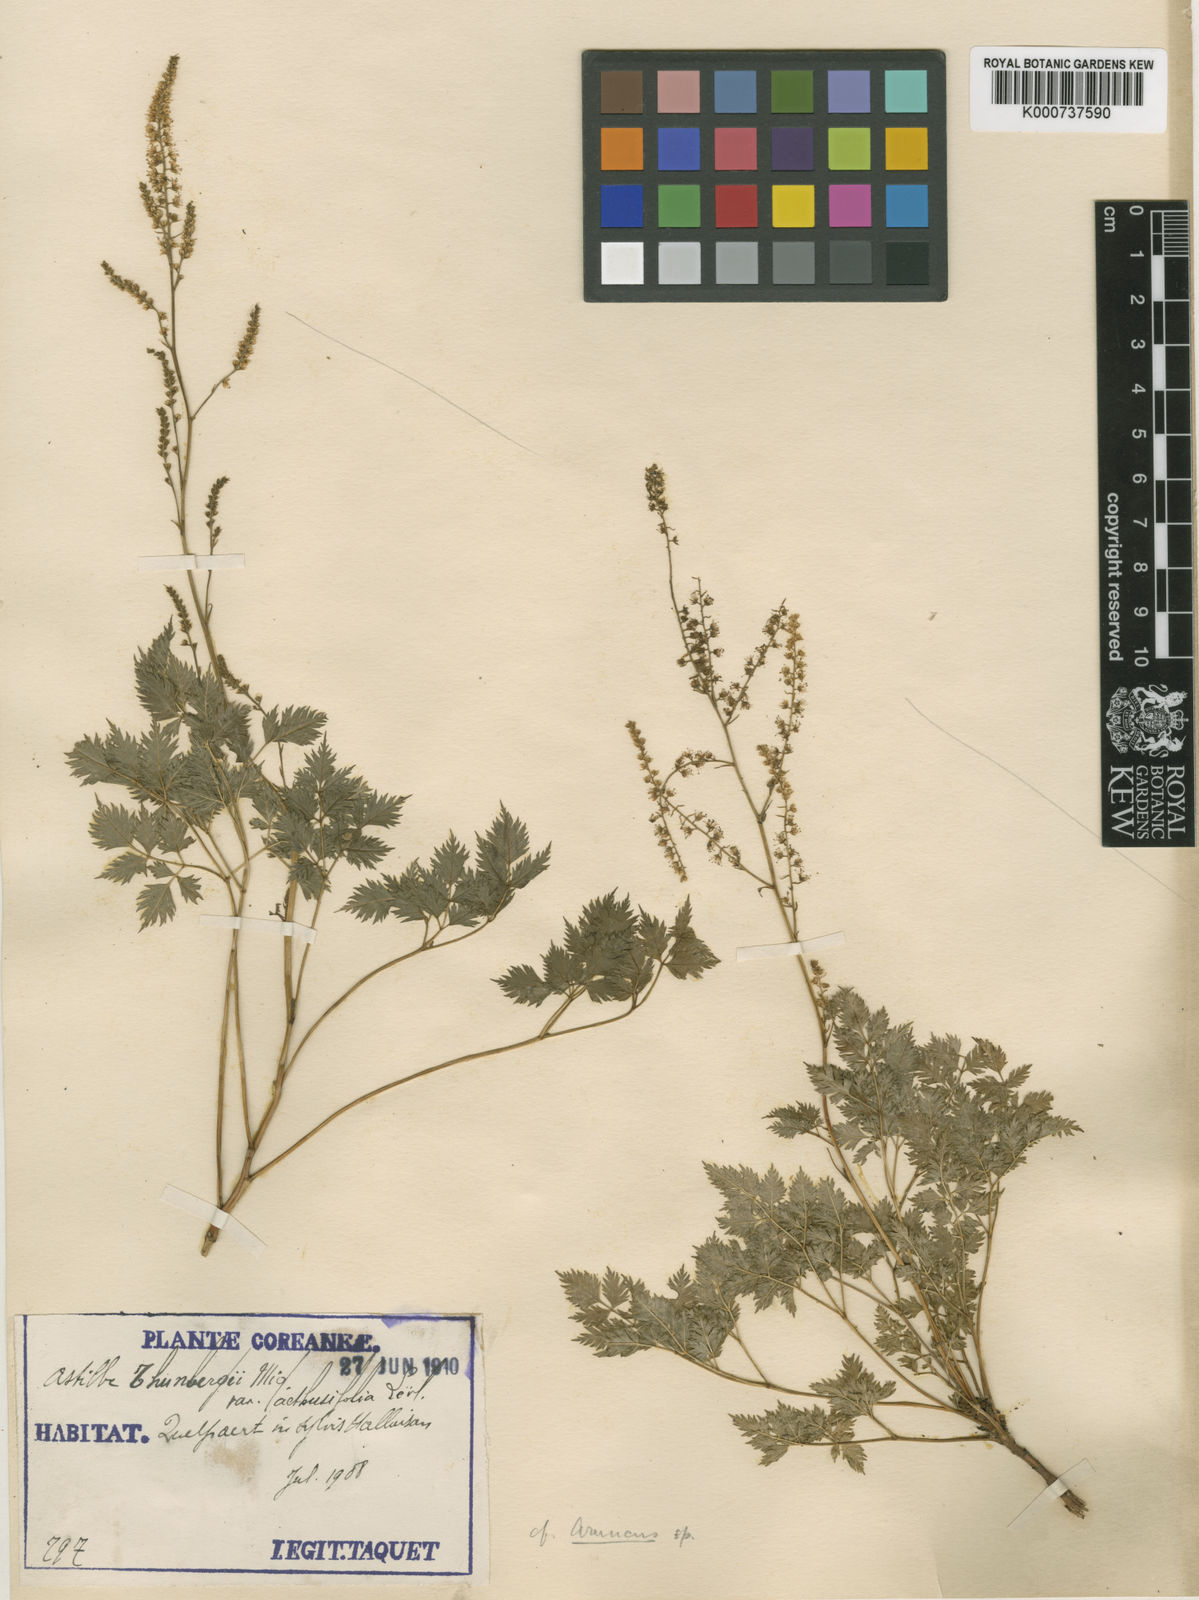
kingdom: Plantae
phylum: Tracheophyta
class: Magnoliopsida
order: Rosales
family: Rosaceae
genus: Aruncus
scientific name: Aruncus sylvester
